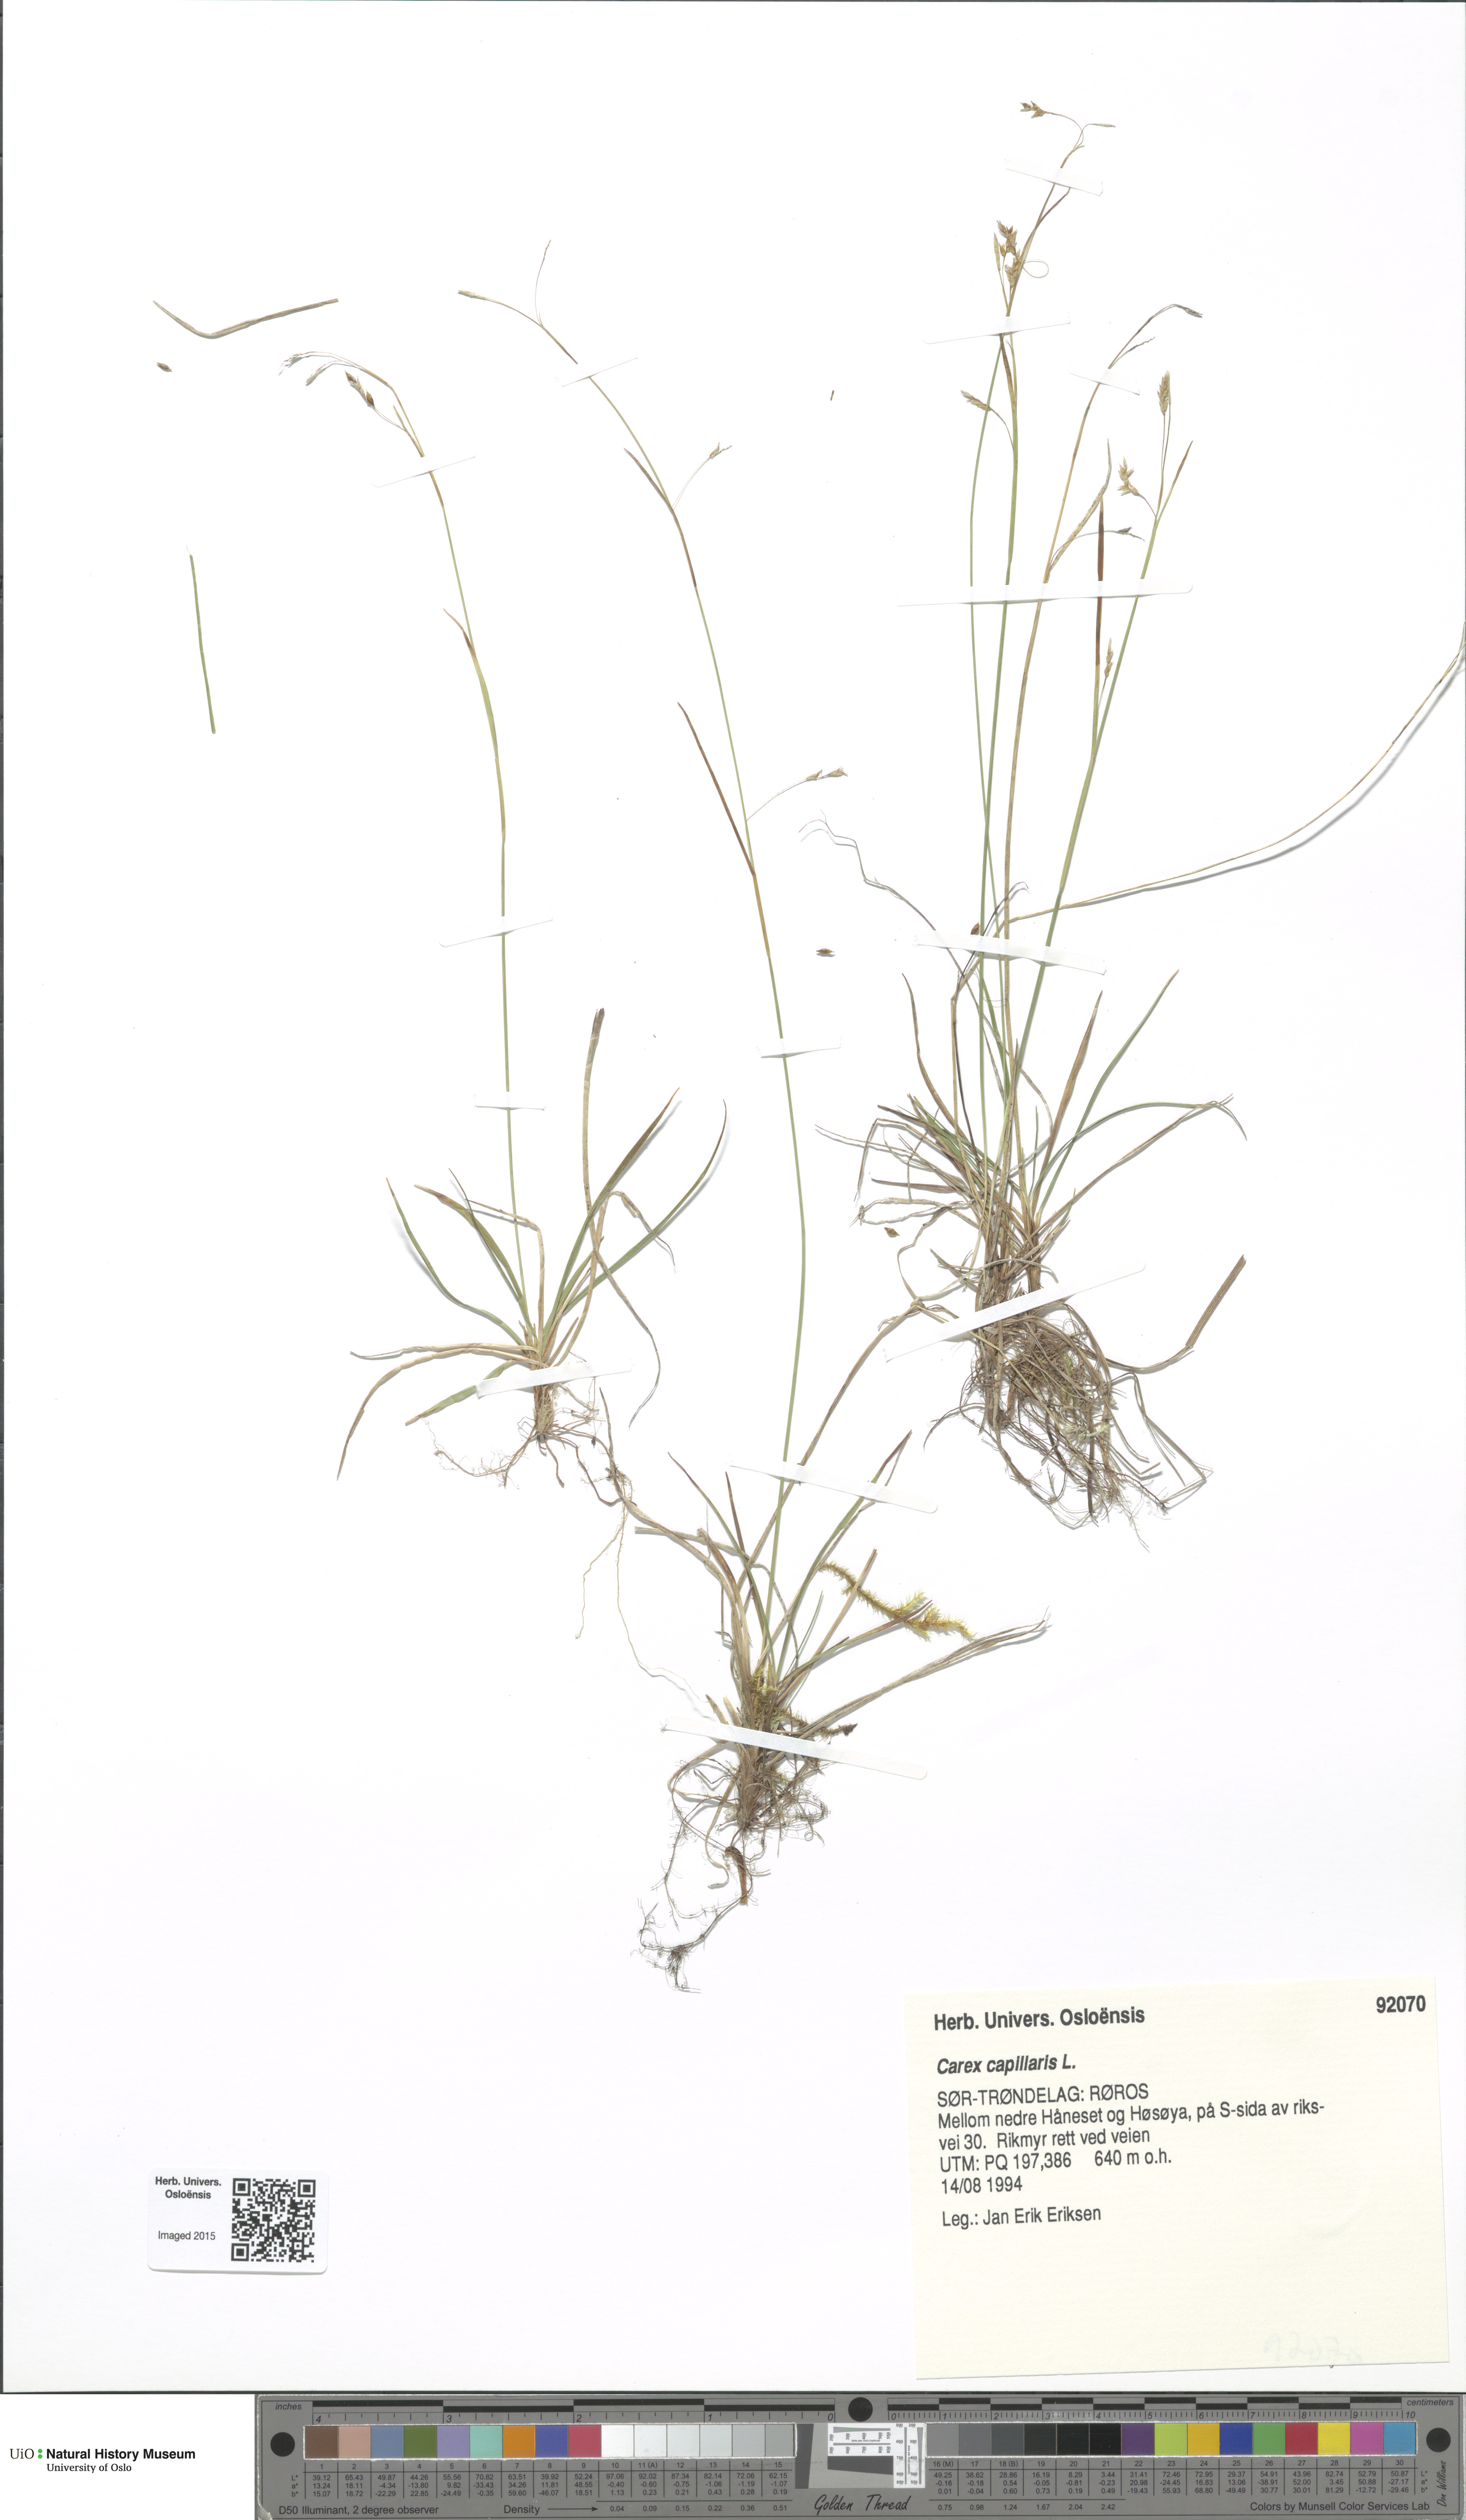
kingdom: Plantae
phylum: Tracheophyta
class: Liliopsida
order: Poales
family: Cyperaceae
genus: Carex
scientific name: Carex capillaris
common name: Hair sedge
